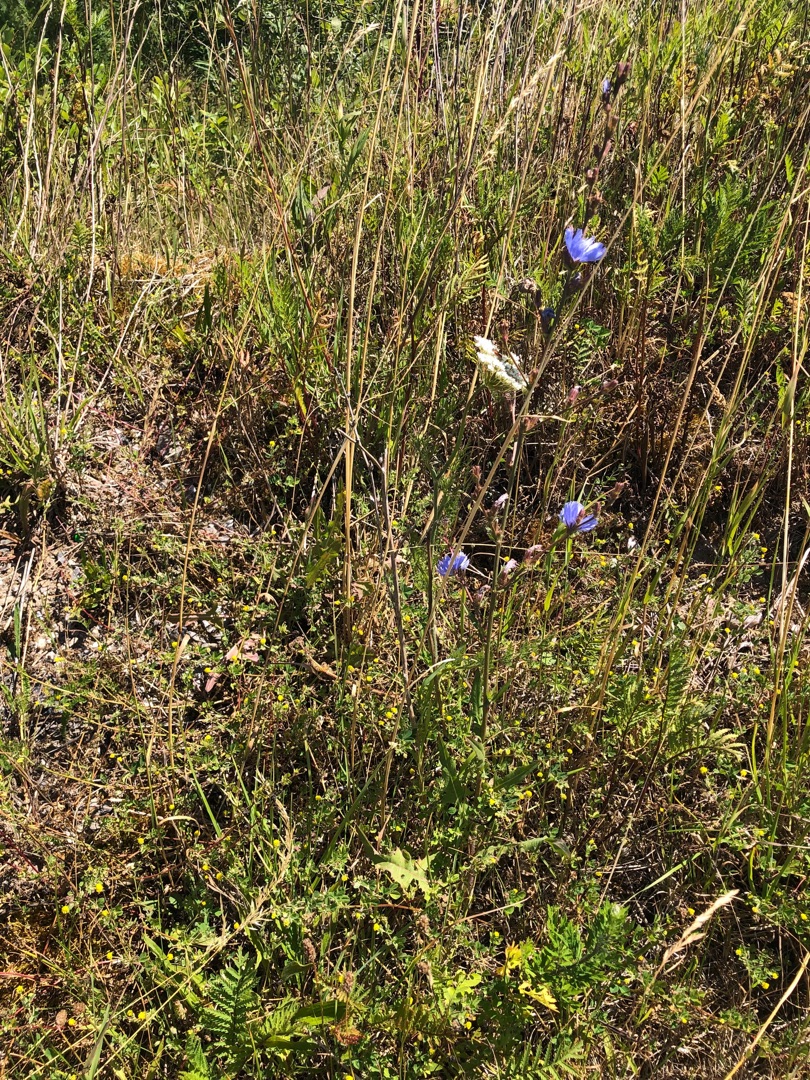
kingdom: Plantae
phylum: Tracheophyta
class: Magnoliopsida
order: Asterales
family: Asteraceae
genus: Cichorium
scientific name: Cichorium intybus
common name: Cikorie
